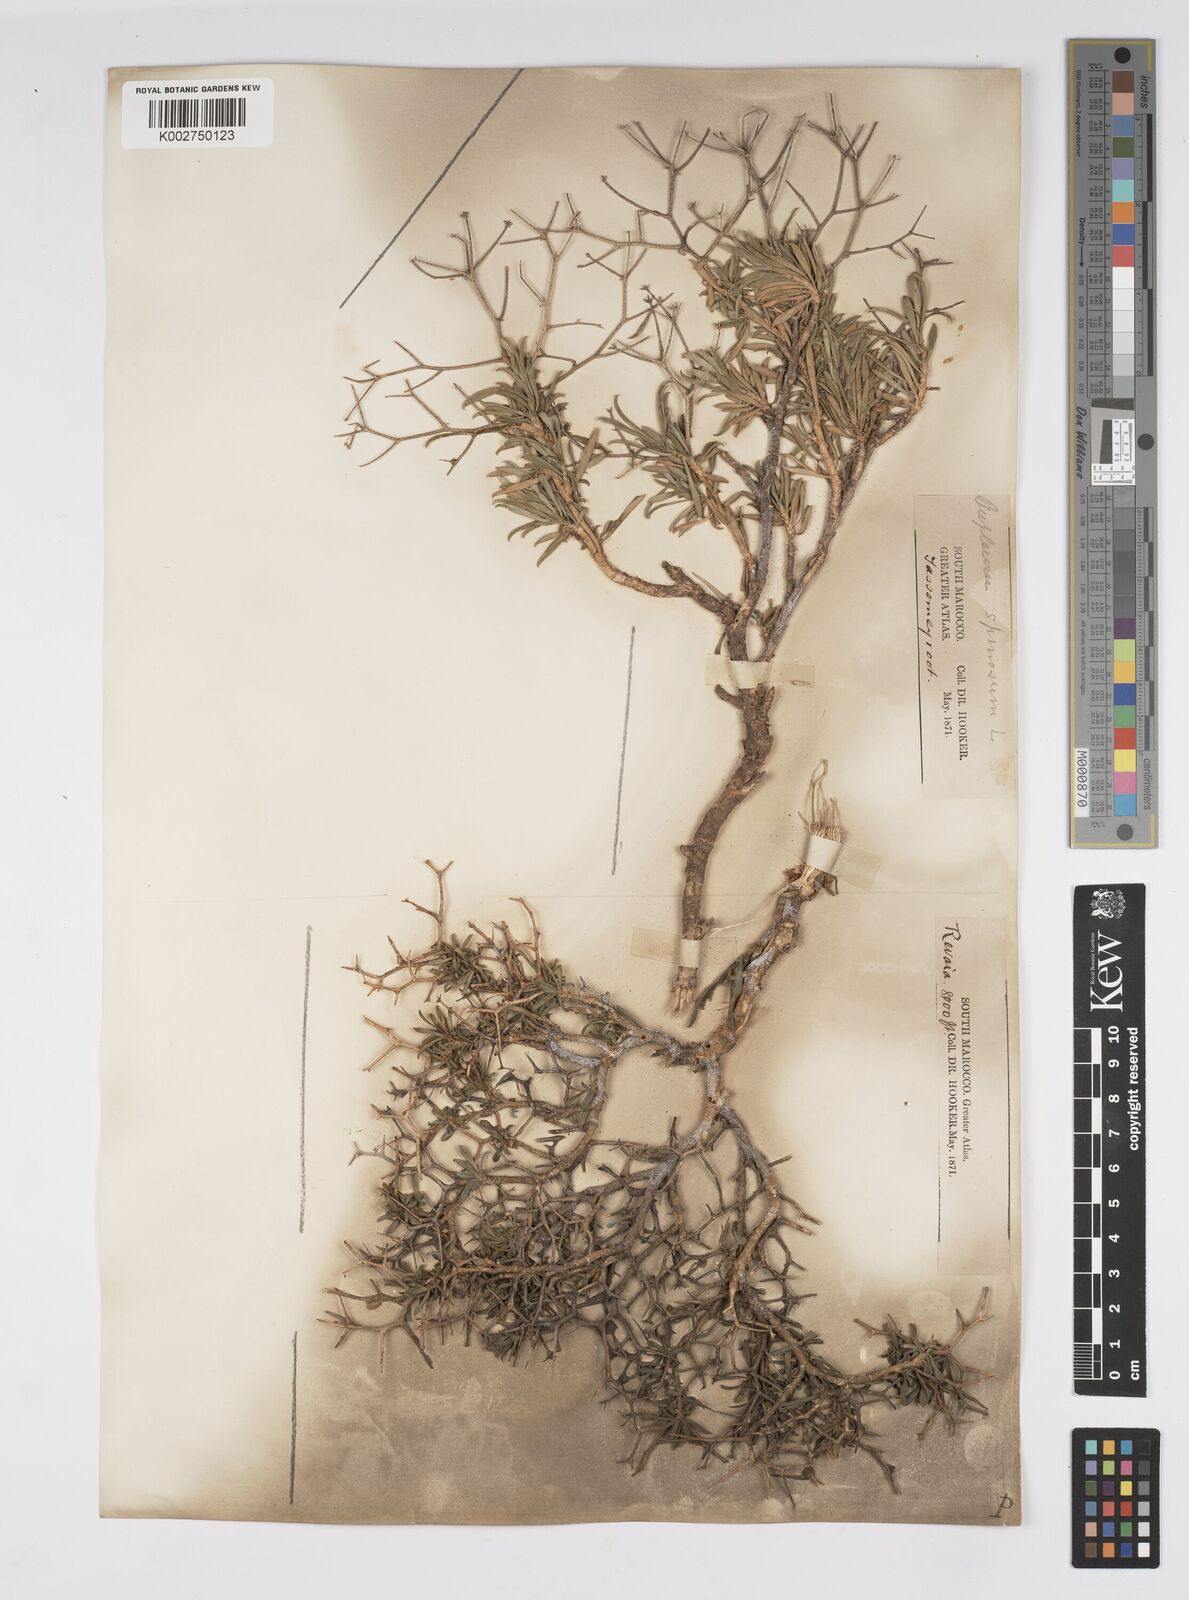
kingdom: Plantae
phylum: Tracheophyta
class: Magnoliopsida
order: Apiales
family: Apiaceae
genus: Bupleurum
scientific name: Bupleurum fruticescens
